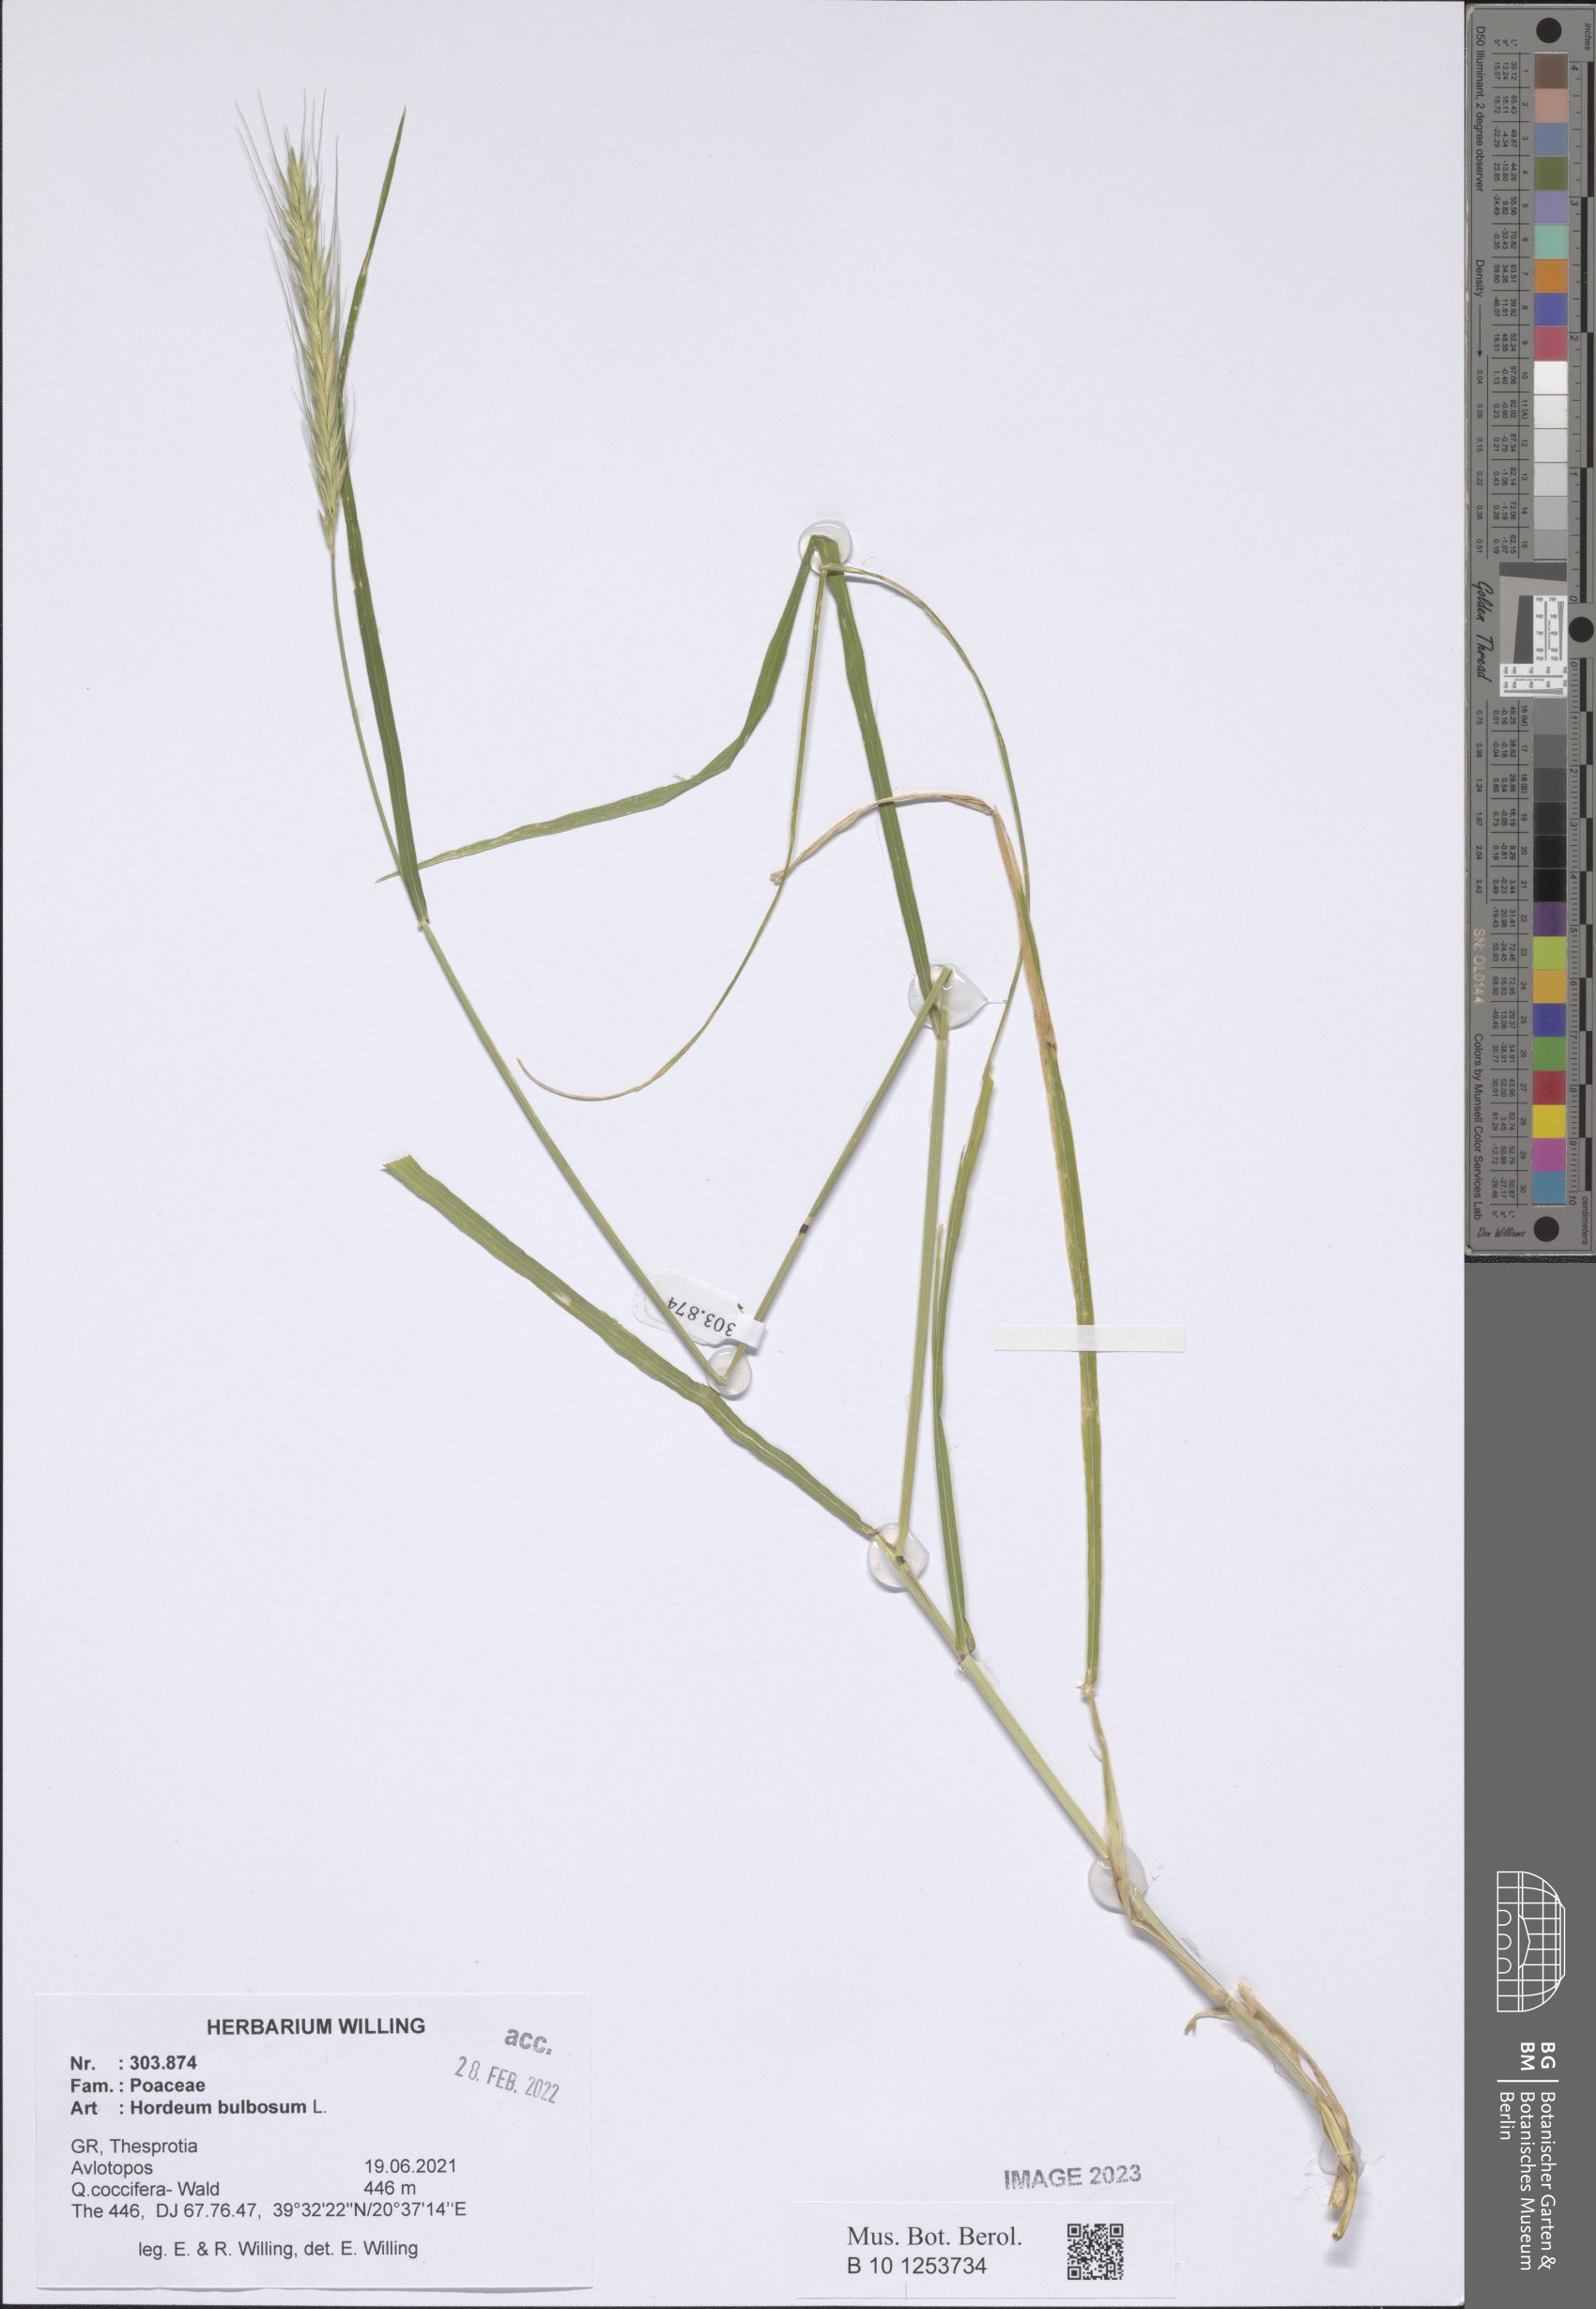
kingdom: Plantae
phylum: Tracheophyta
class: Liliopsida
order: Poales
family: Poaceae
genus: Hordeum
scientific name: Hordeum bulbosum
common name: Bulbous barley
